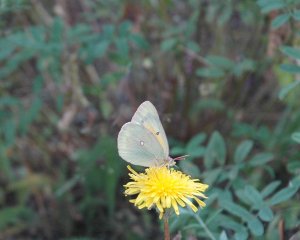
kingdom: Animalia
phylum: Arthropoda
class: Insecta
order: Lepidoptera
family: Pieridae
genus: Colias
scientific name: Colias
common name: Clouded Yellows
